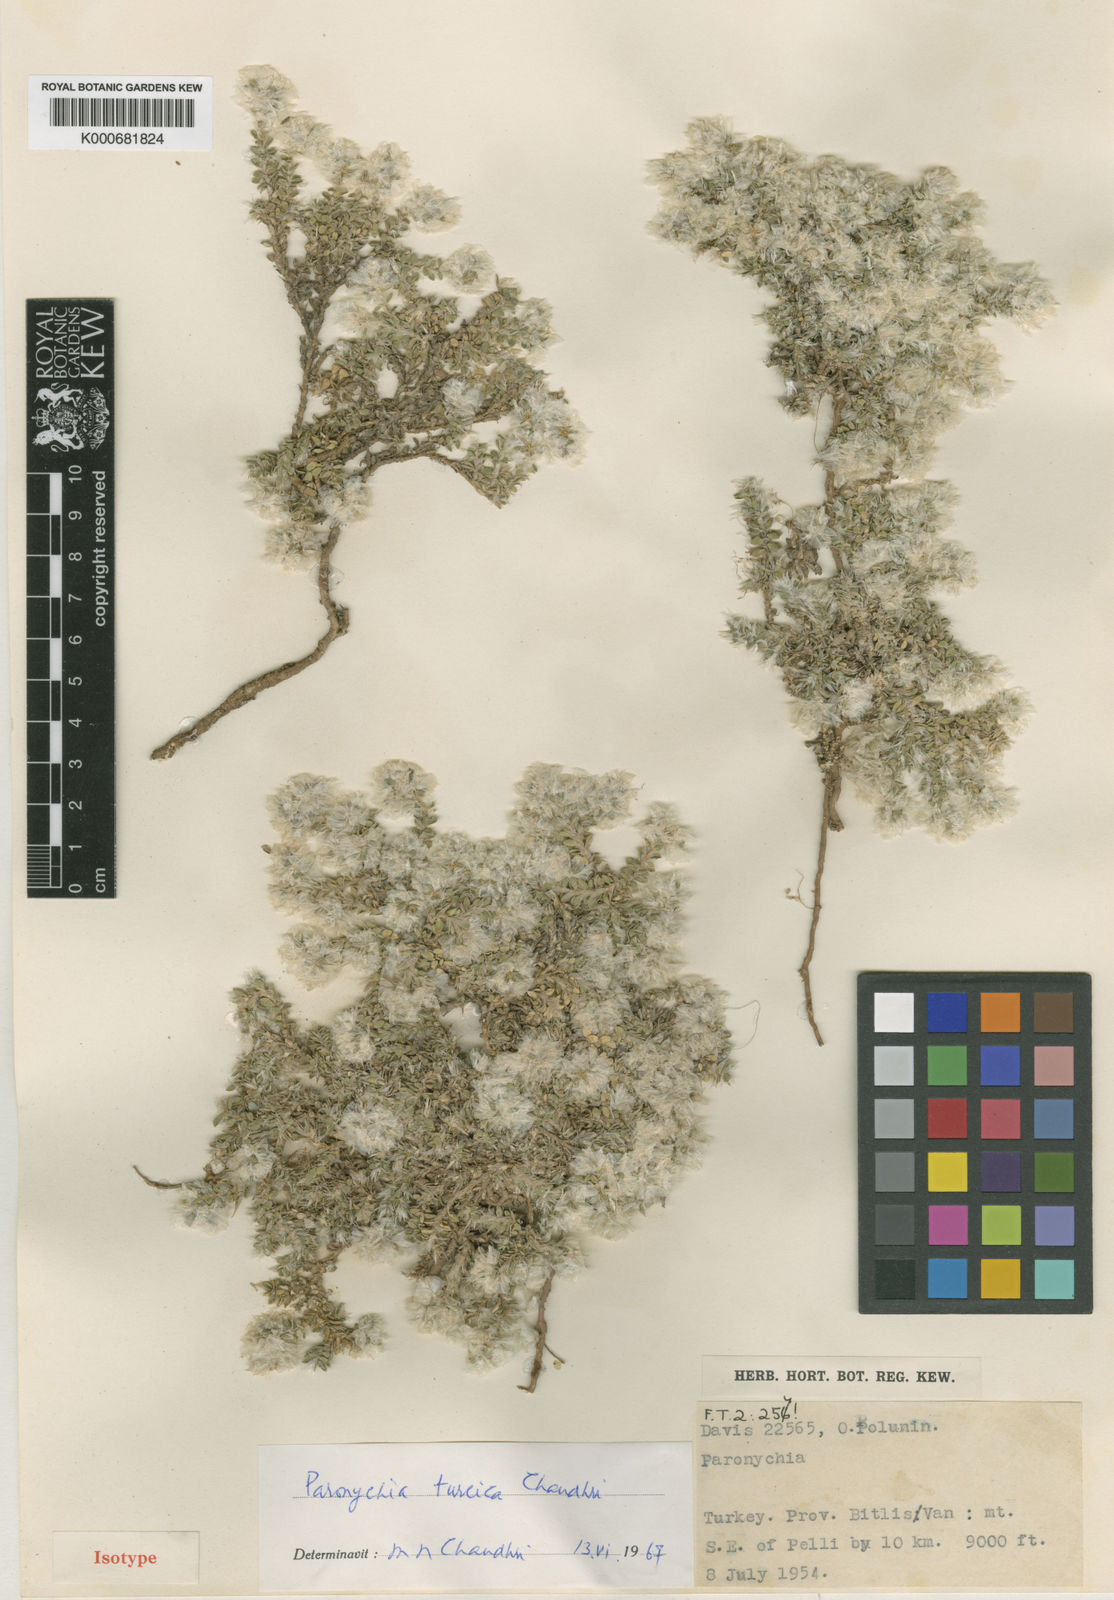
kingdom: Plantae
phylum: Tracheophyta
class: Magnoliopsida
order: Caryophyllales
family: Caryophyllaceae
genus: Paronychia
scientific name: Paronychia turcica
